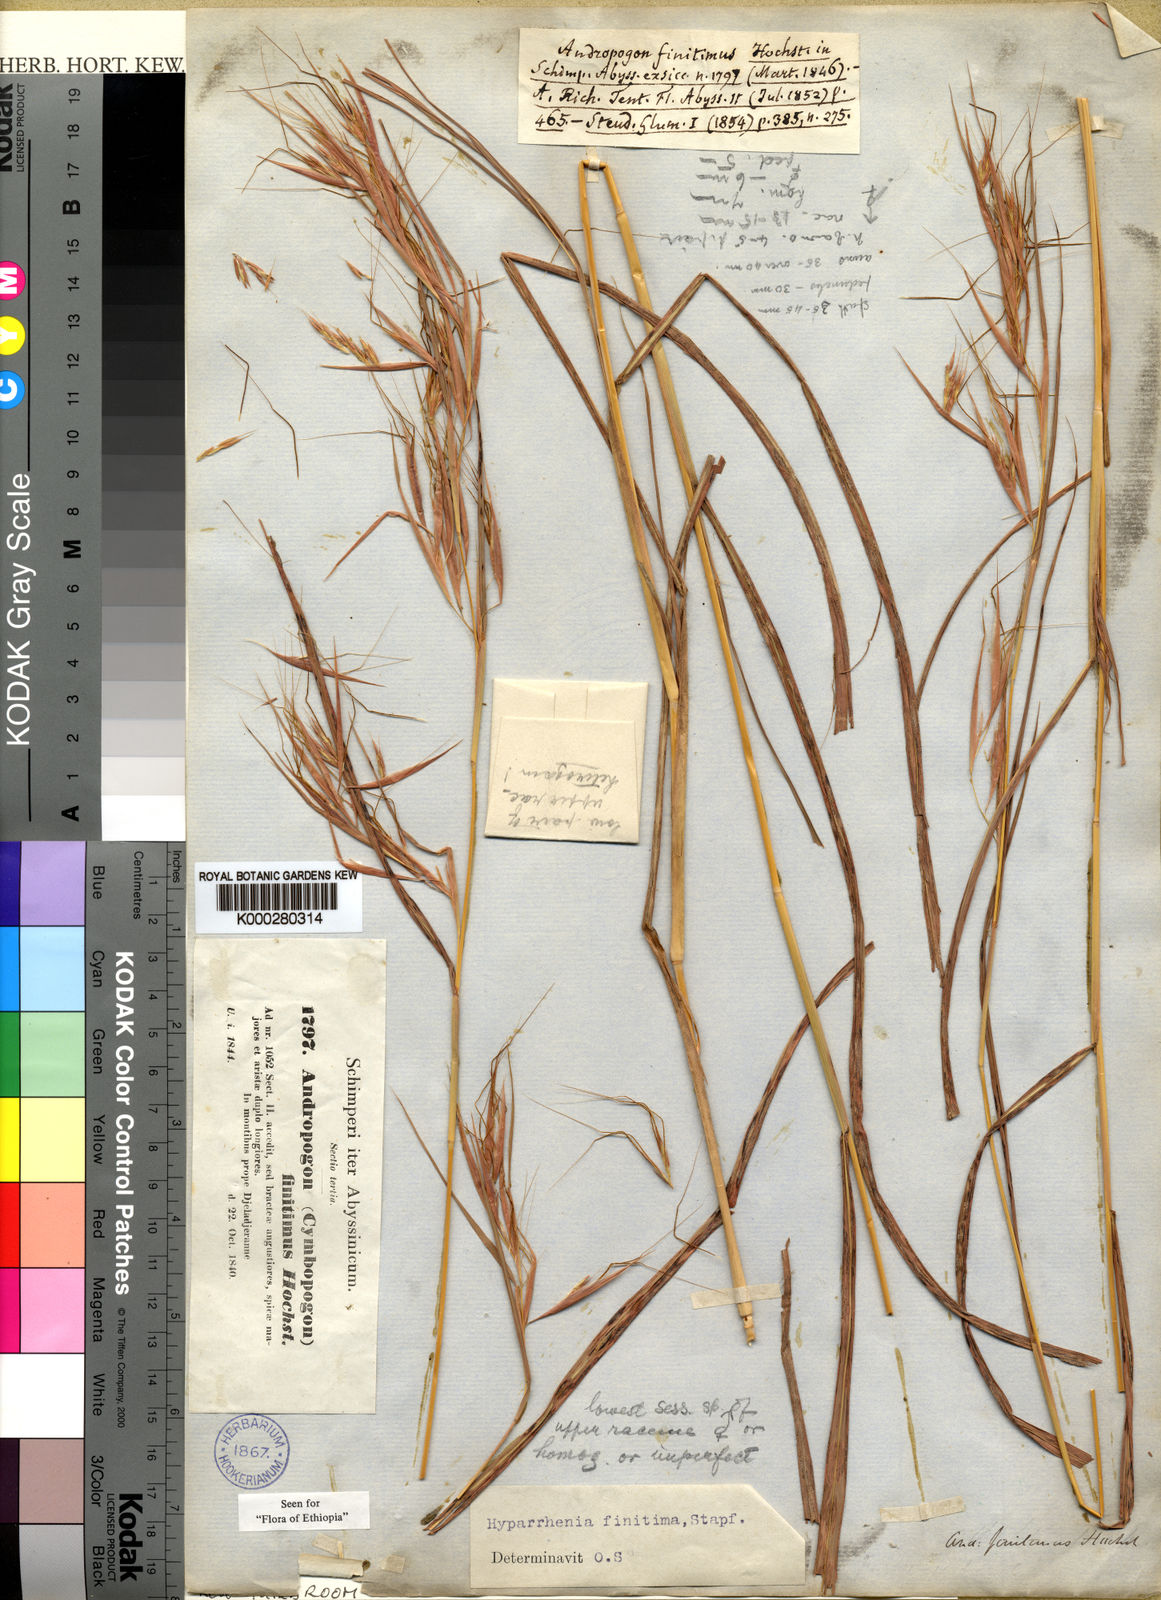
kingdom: Plantae
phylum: Tracheophyta
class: Liliopsida
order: Poales
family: Poaceae
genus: Hyparrhenia
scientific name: Hyparrhenia finitima
